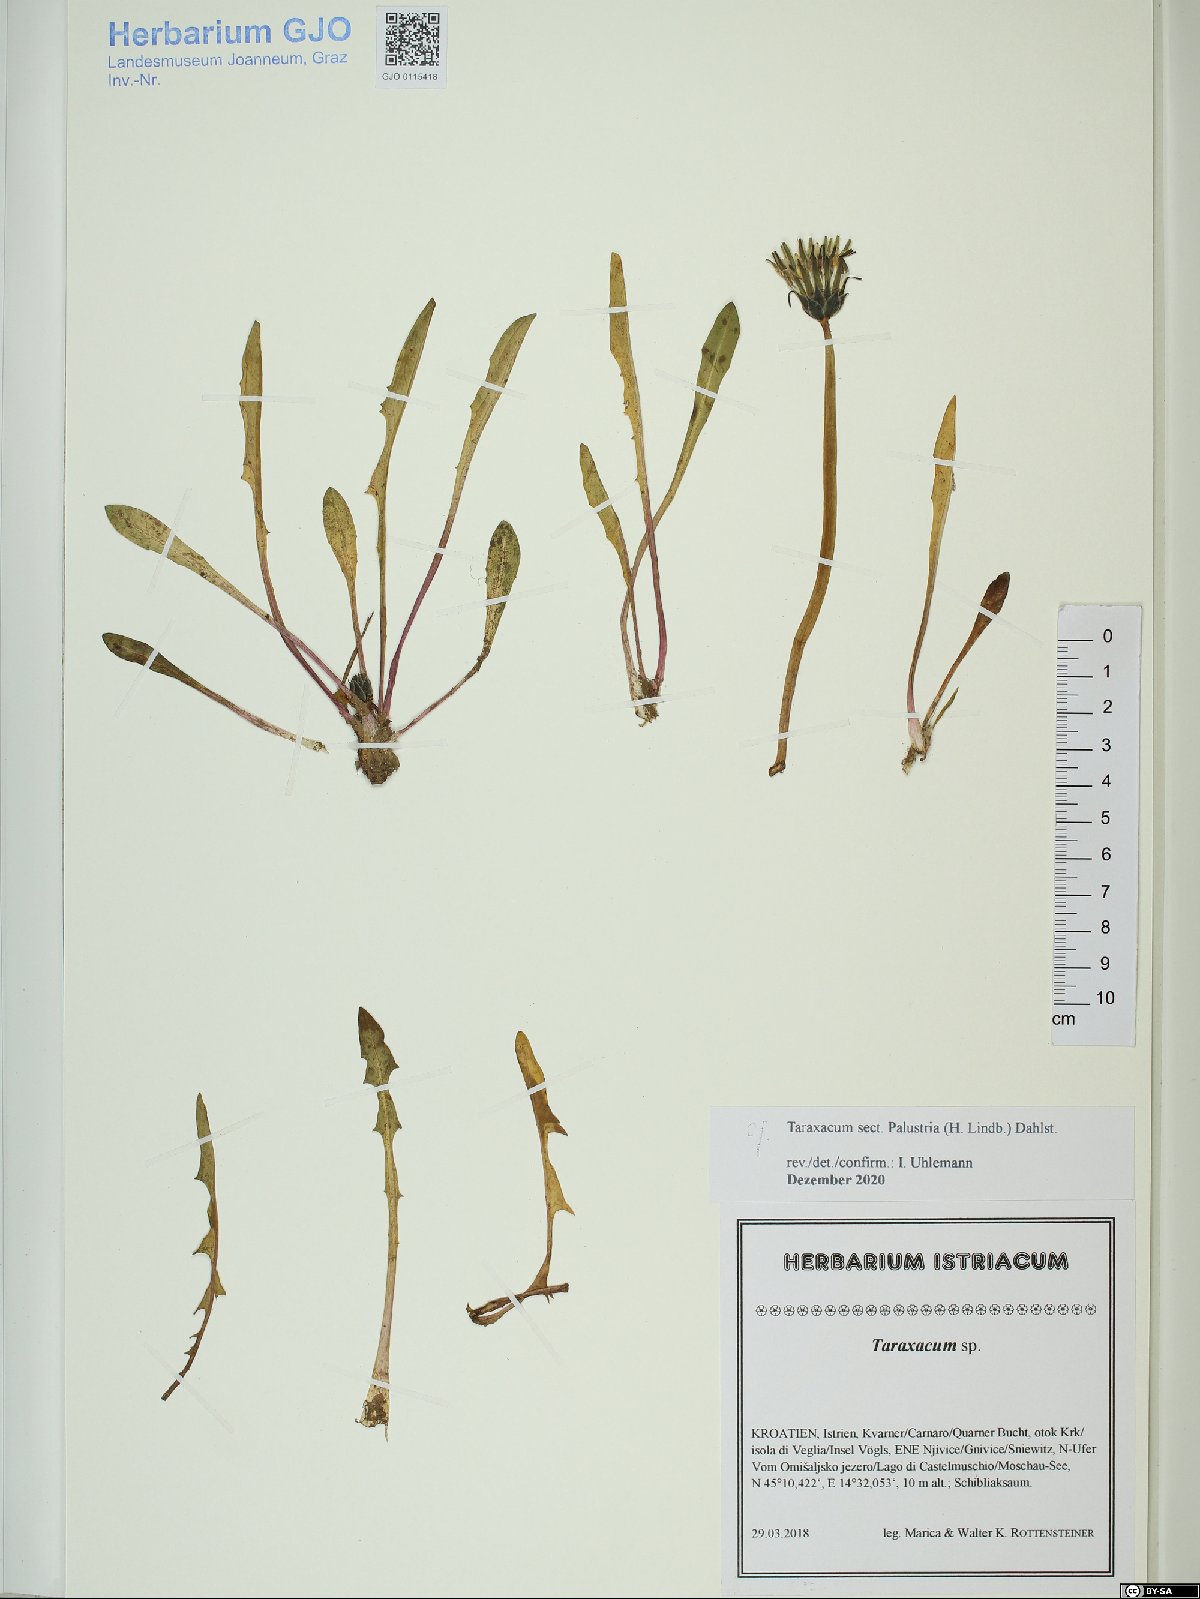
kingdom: Plantae
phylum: Tracheophyta
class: Magnoliopsida
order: Asterales
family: Asteraceae
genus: Taraxacum
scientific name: Taraxacum palustria
